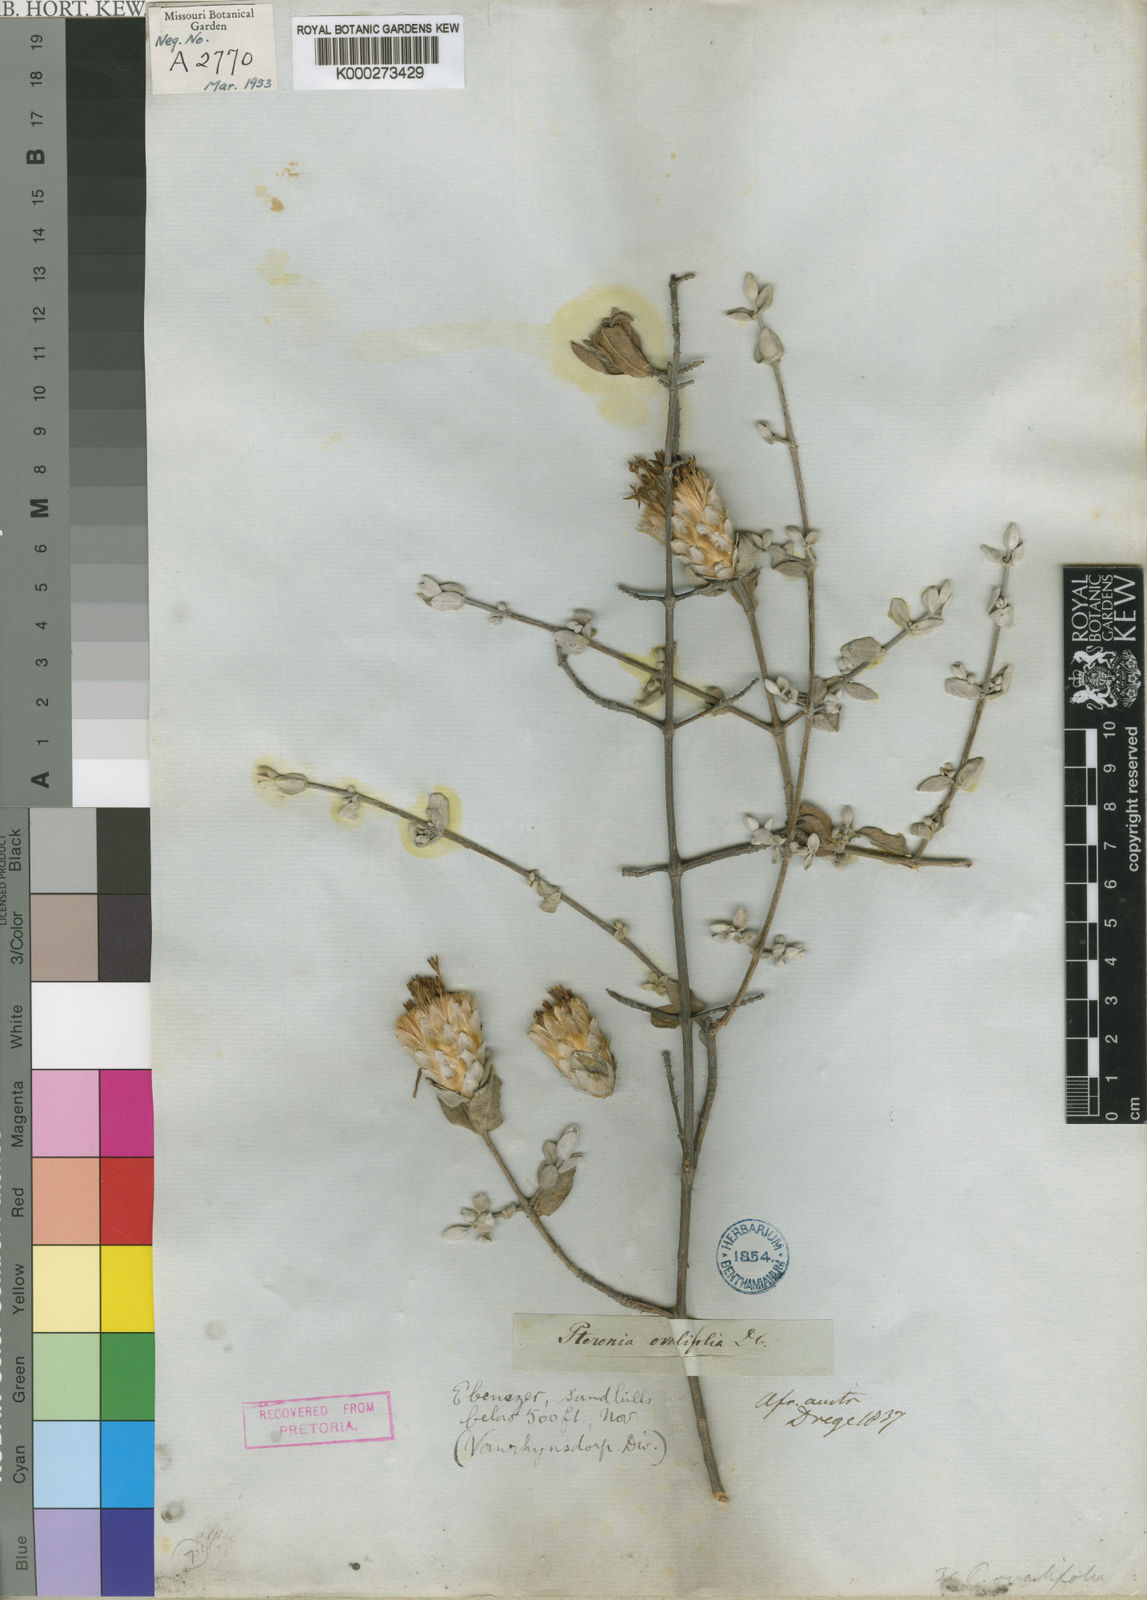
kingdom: Plantae
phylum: Tracheophyta
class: Magnoliopsida
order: Asterales
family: Asteraceae
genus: Pteronia
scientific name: Pteronia ovalifolia
